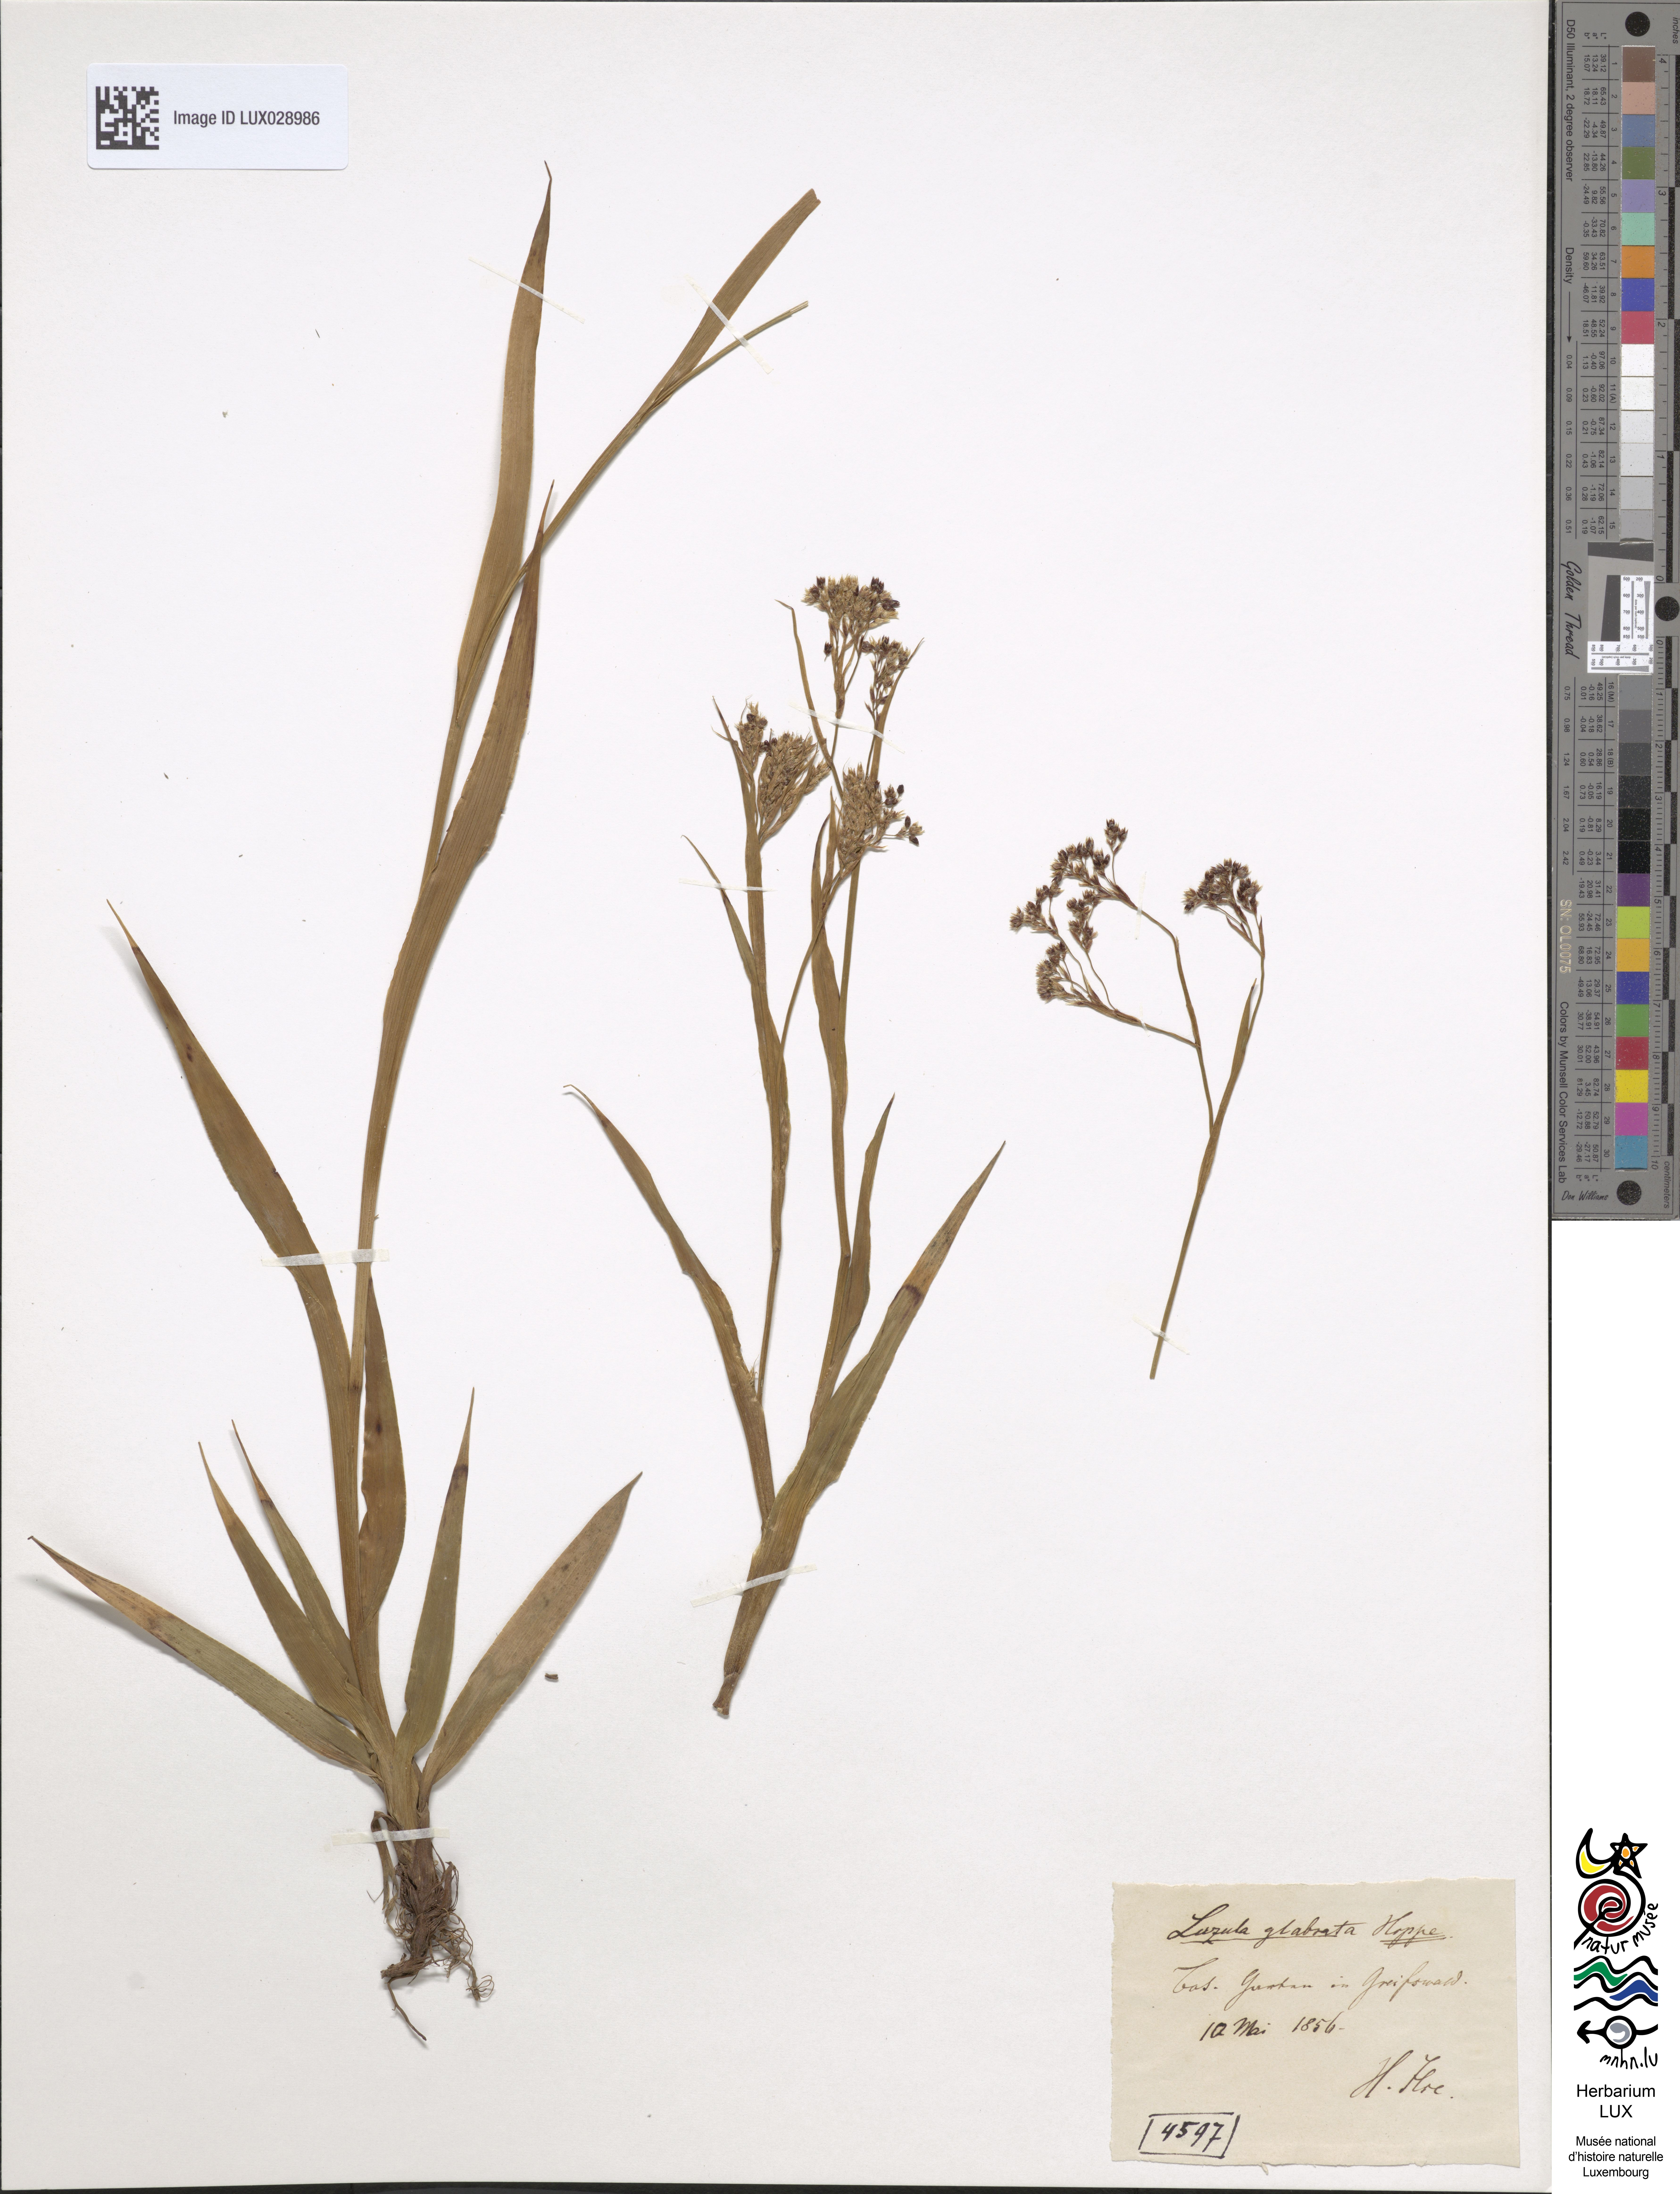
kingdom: Plantae
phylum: Tracheophyta
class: Liliopsida
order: Poales
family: Juncaceae
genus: Luzula
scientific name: Luzula glabrata
